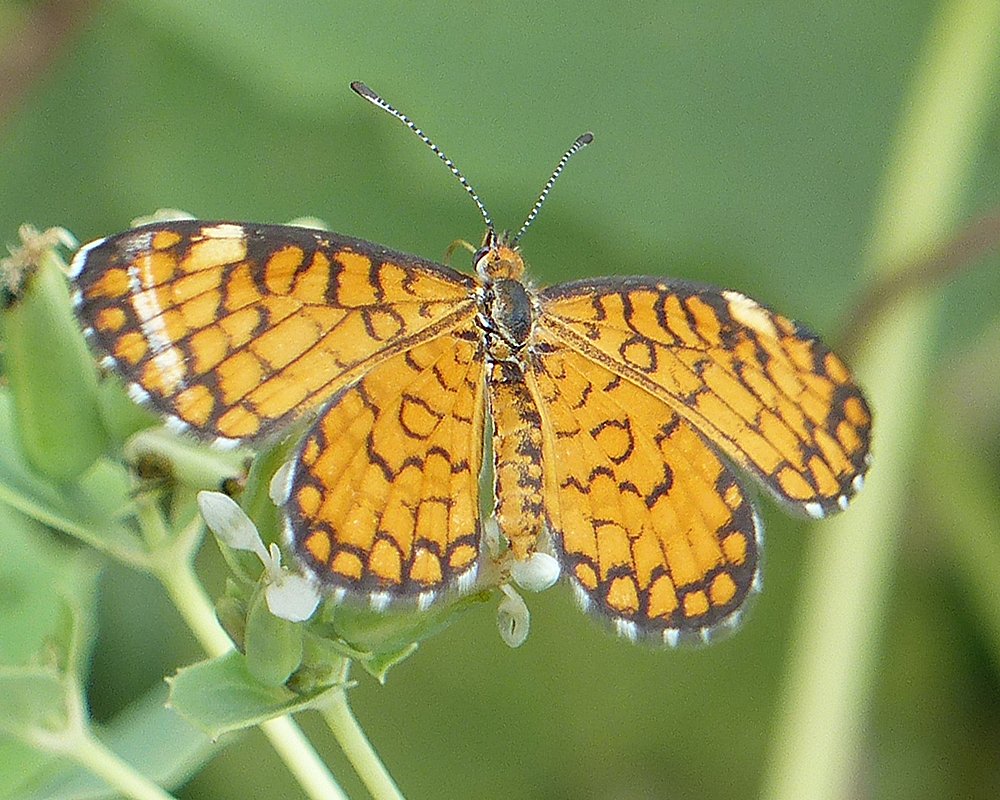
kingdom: Animalia
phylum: Arthropoda
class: Insecta
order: Lepidoptera
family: Nymphalidae
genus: Dymasia
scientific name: Dymasia dymas
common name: Tiny Checkerspot
